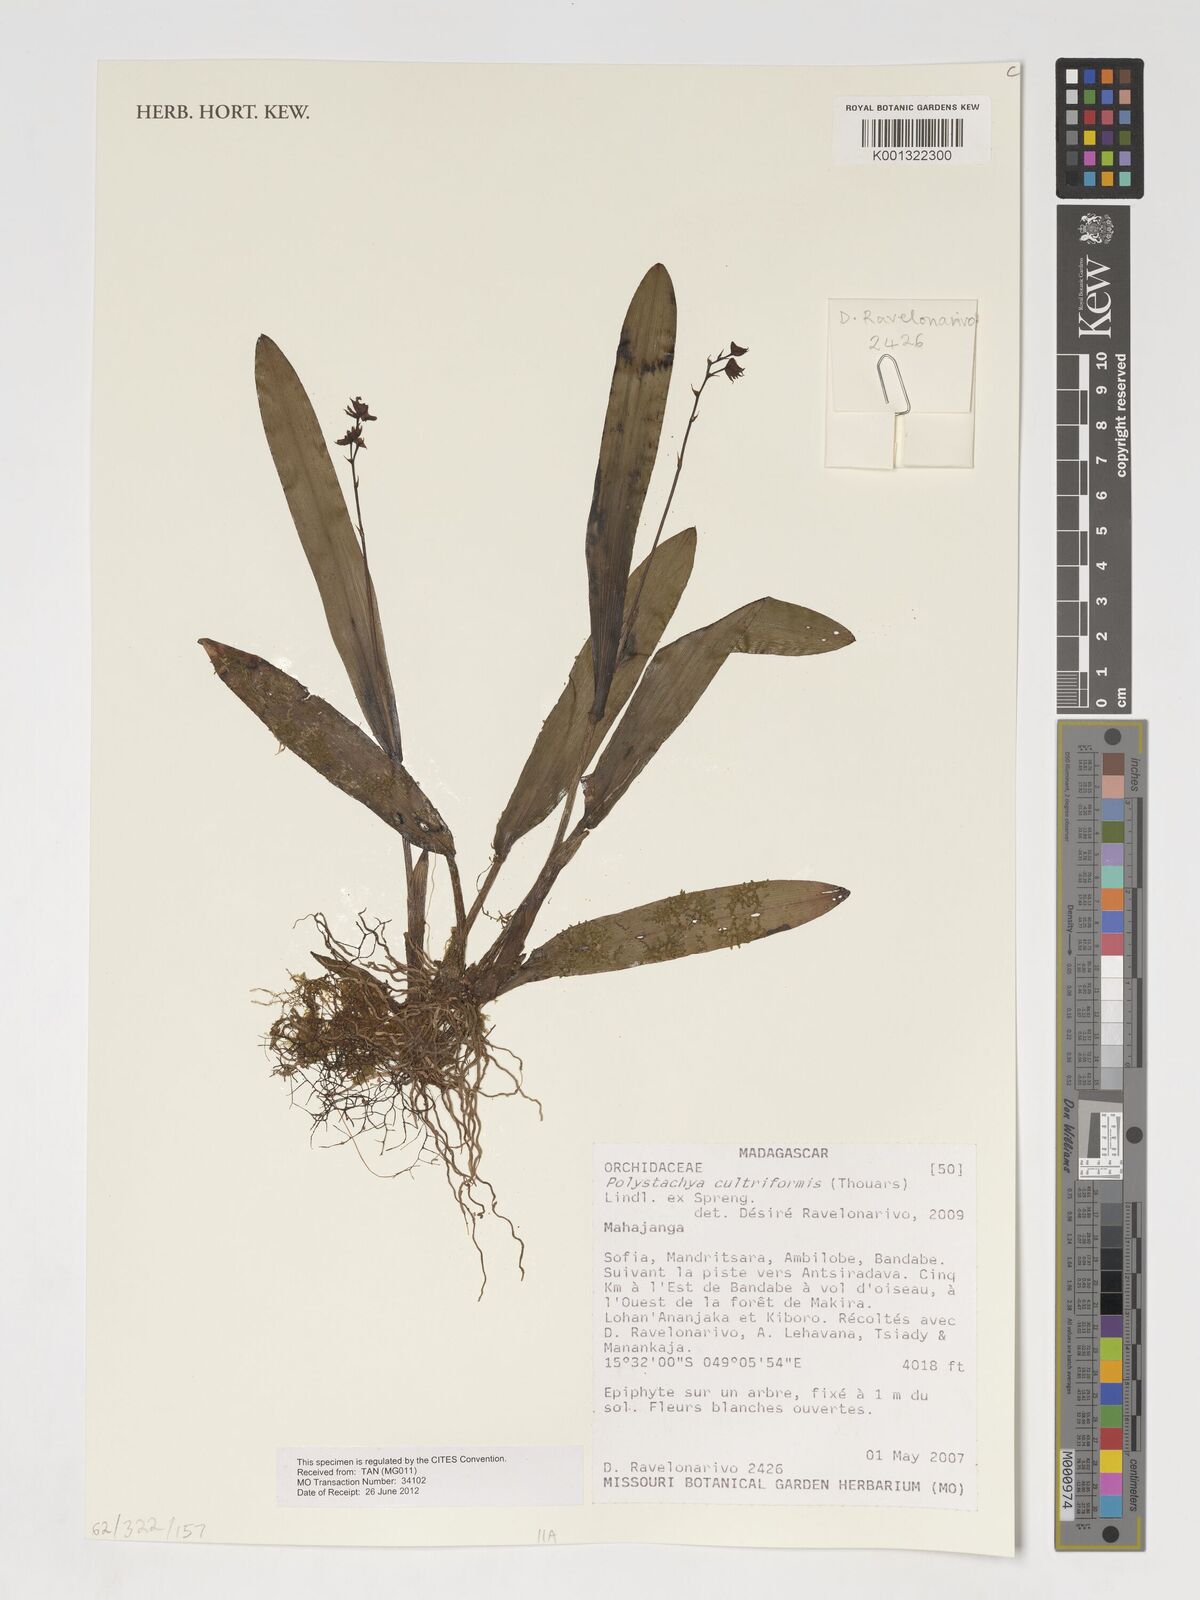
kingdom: Plantae
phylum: Tracheophyta
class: Liliopsida
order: Asparagales
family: Orchidaceae
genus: Polystachya
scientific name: Polystachya cultriformis
